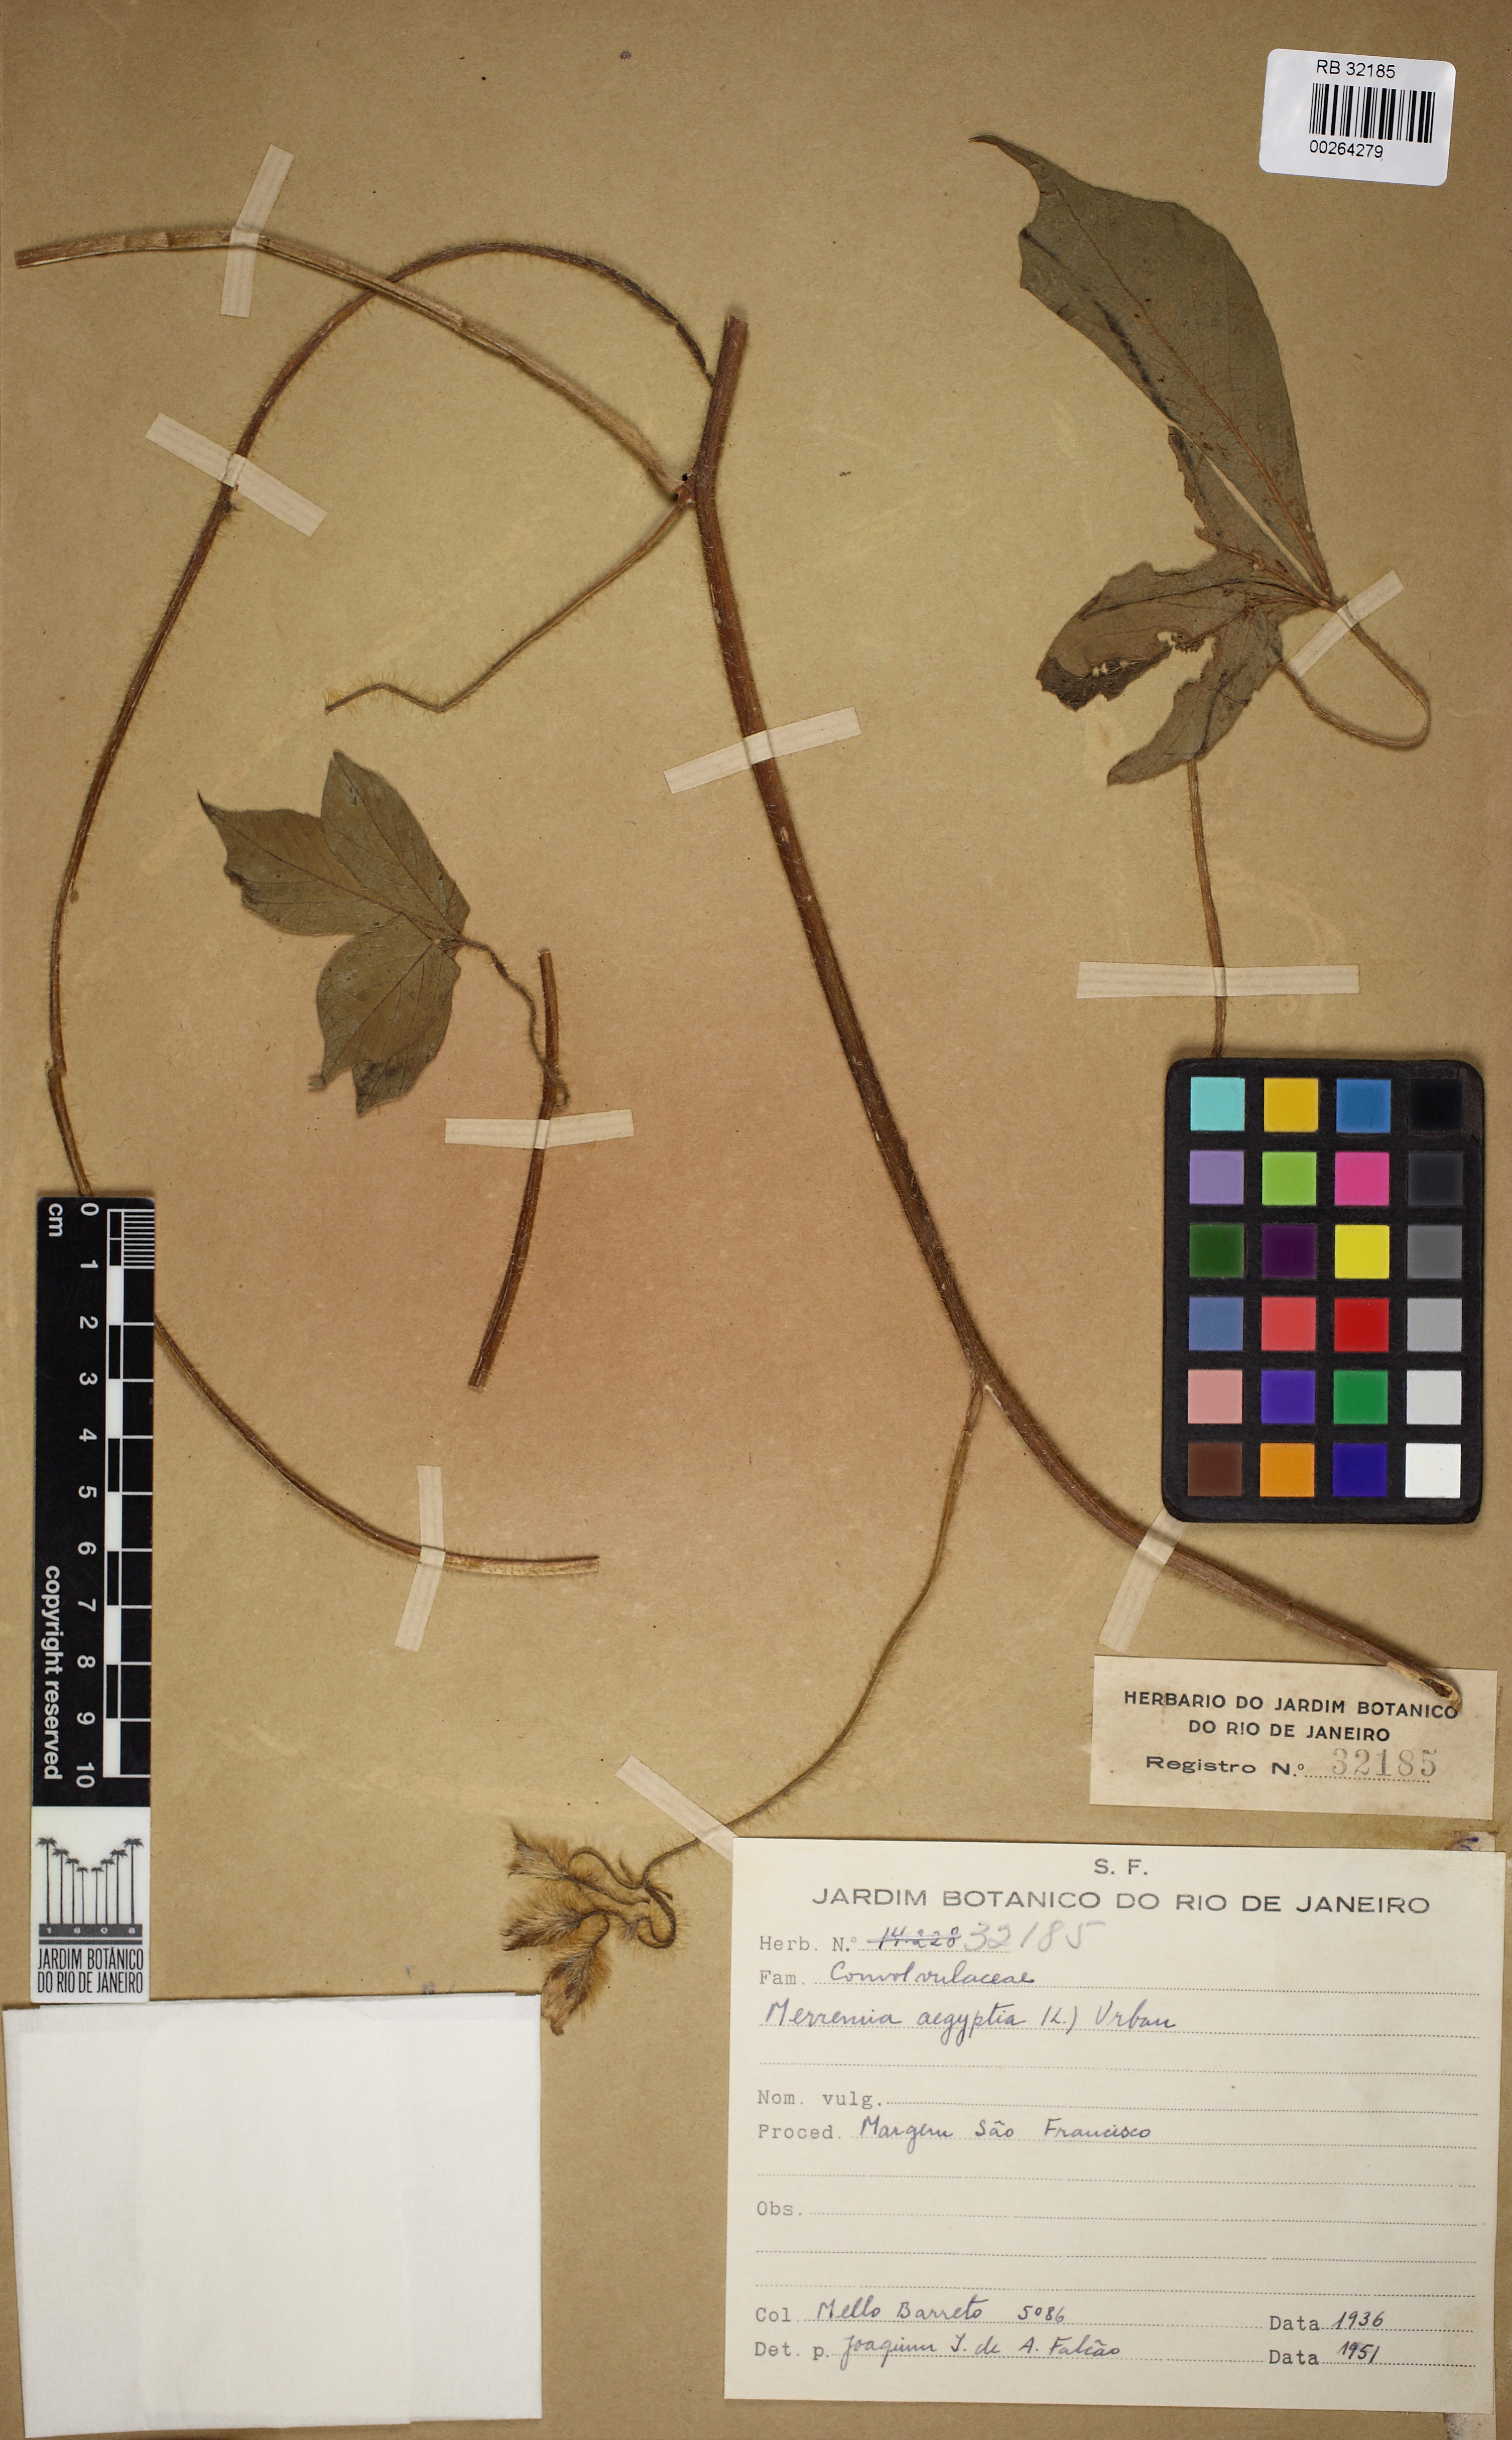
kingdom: Plantae
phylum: Tracheophyta
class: Magnoliopsida
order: Solanales
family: Convolvulaceae
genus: Distimake
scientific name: Distimake aegyptius
